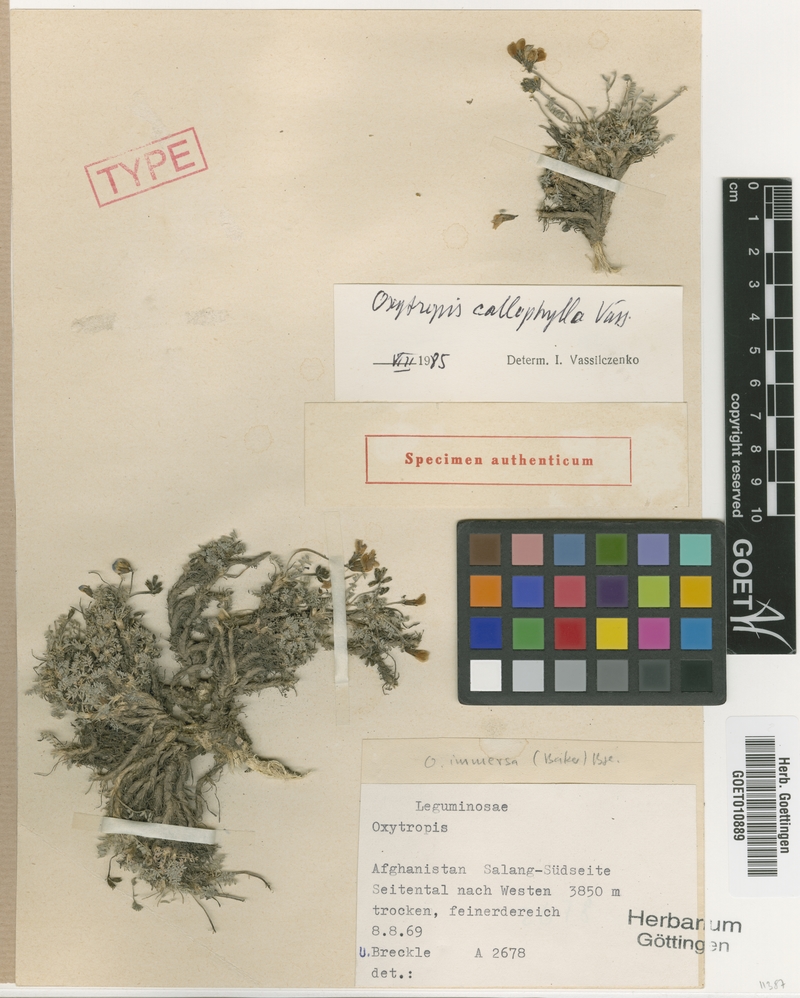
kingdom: Plantae
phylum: Tracheophyta
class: Magnoliopsida
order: Fabales
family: Fabaceae
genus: Oxytropis
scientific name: Oxytropis callophylla
